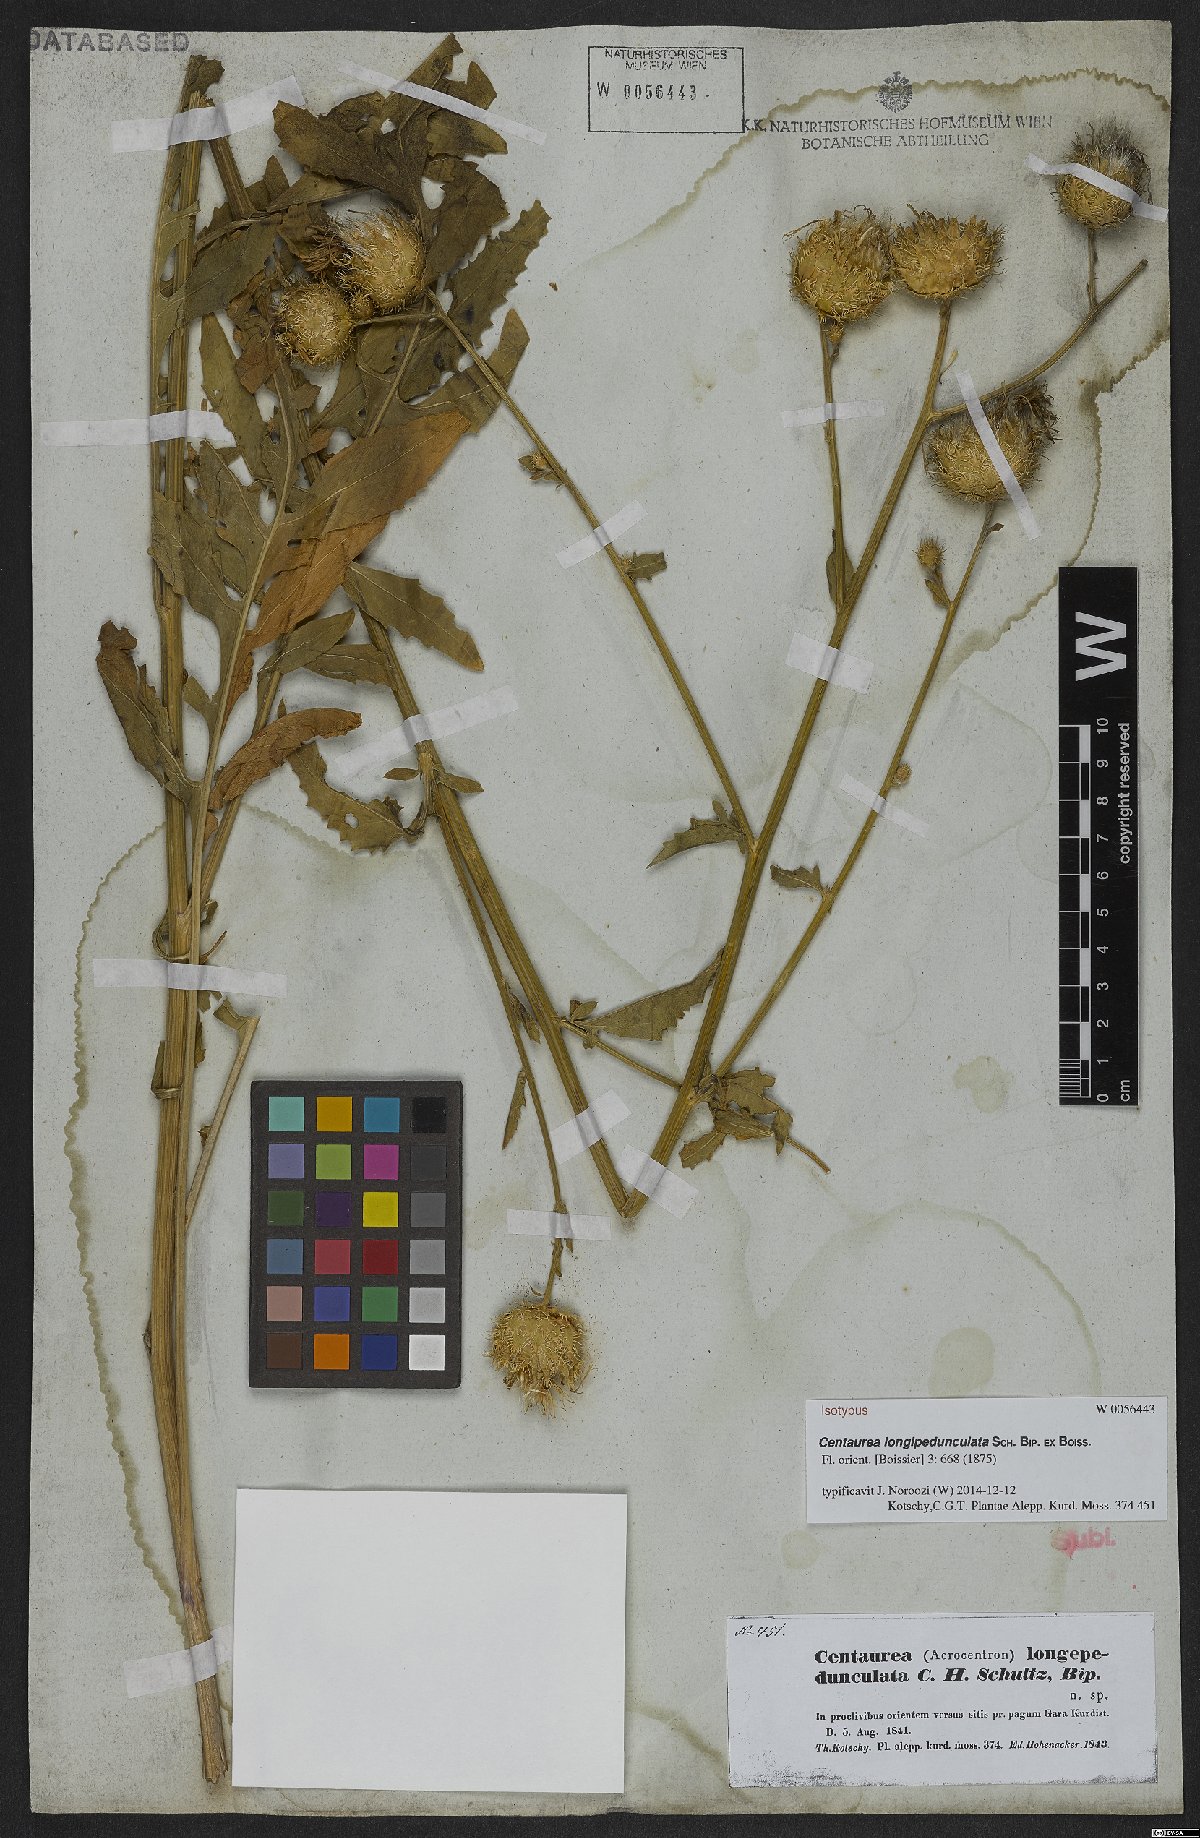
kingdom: Plantae
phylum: Tracheophyta
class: Magnoliopsida
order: Asterales
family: Asteraceae
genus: Centaurea
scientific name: Centaurea longepedunculata
